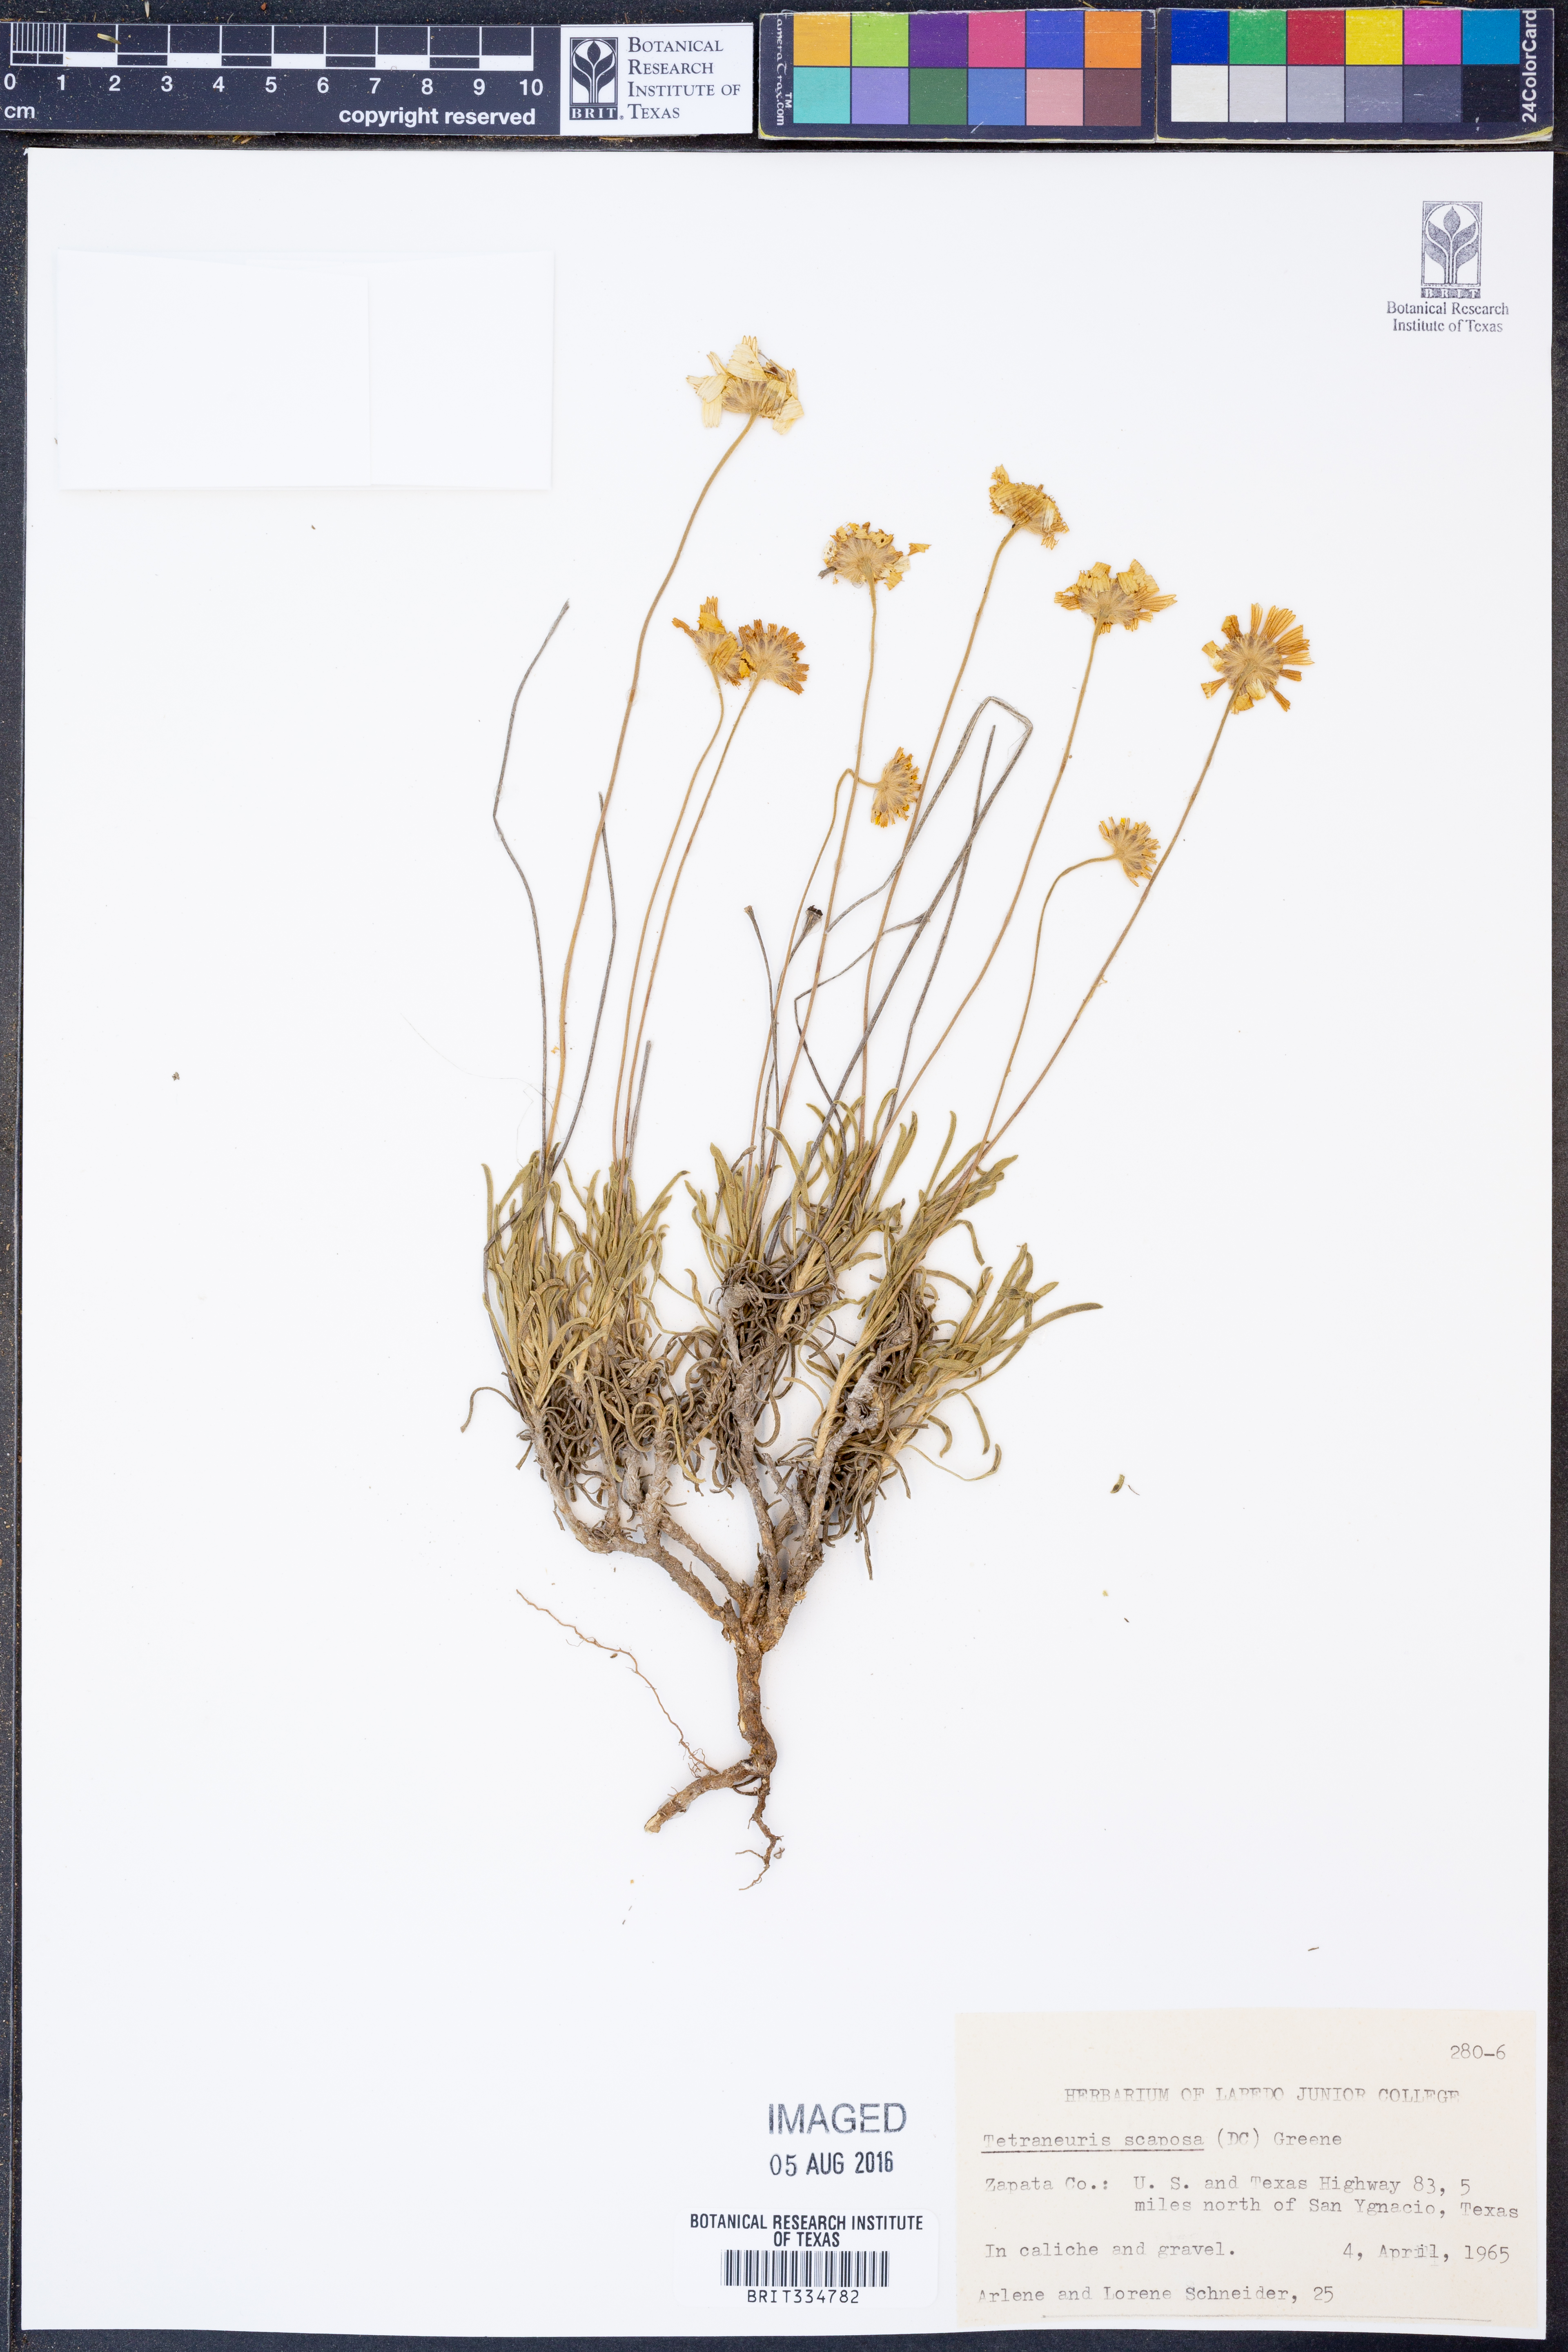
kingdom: Plantae
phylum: Tracheophyta
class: Magnoliopsida
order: Asterales
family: Asteraceae
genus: Tetraneuris
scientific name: Tetraneuris scaposa
